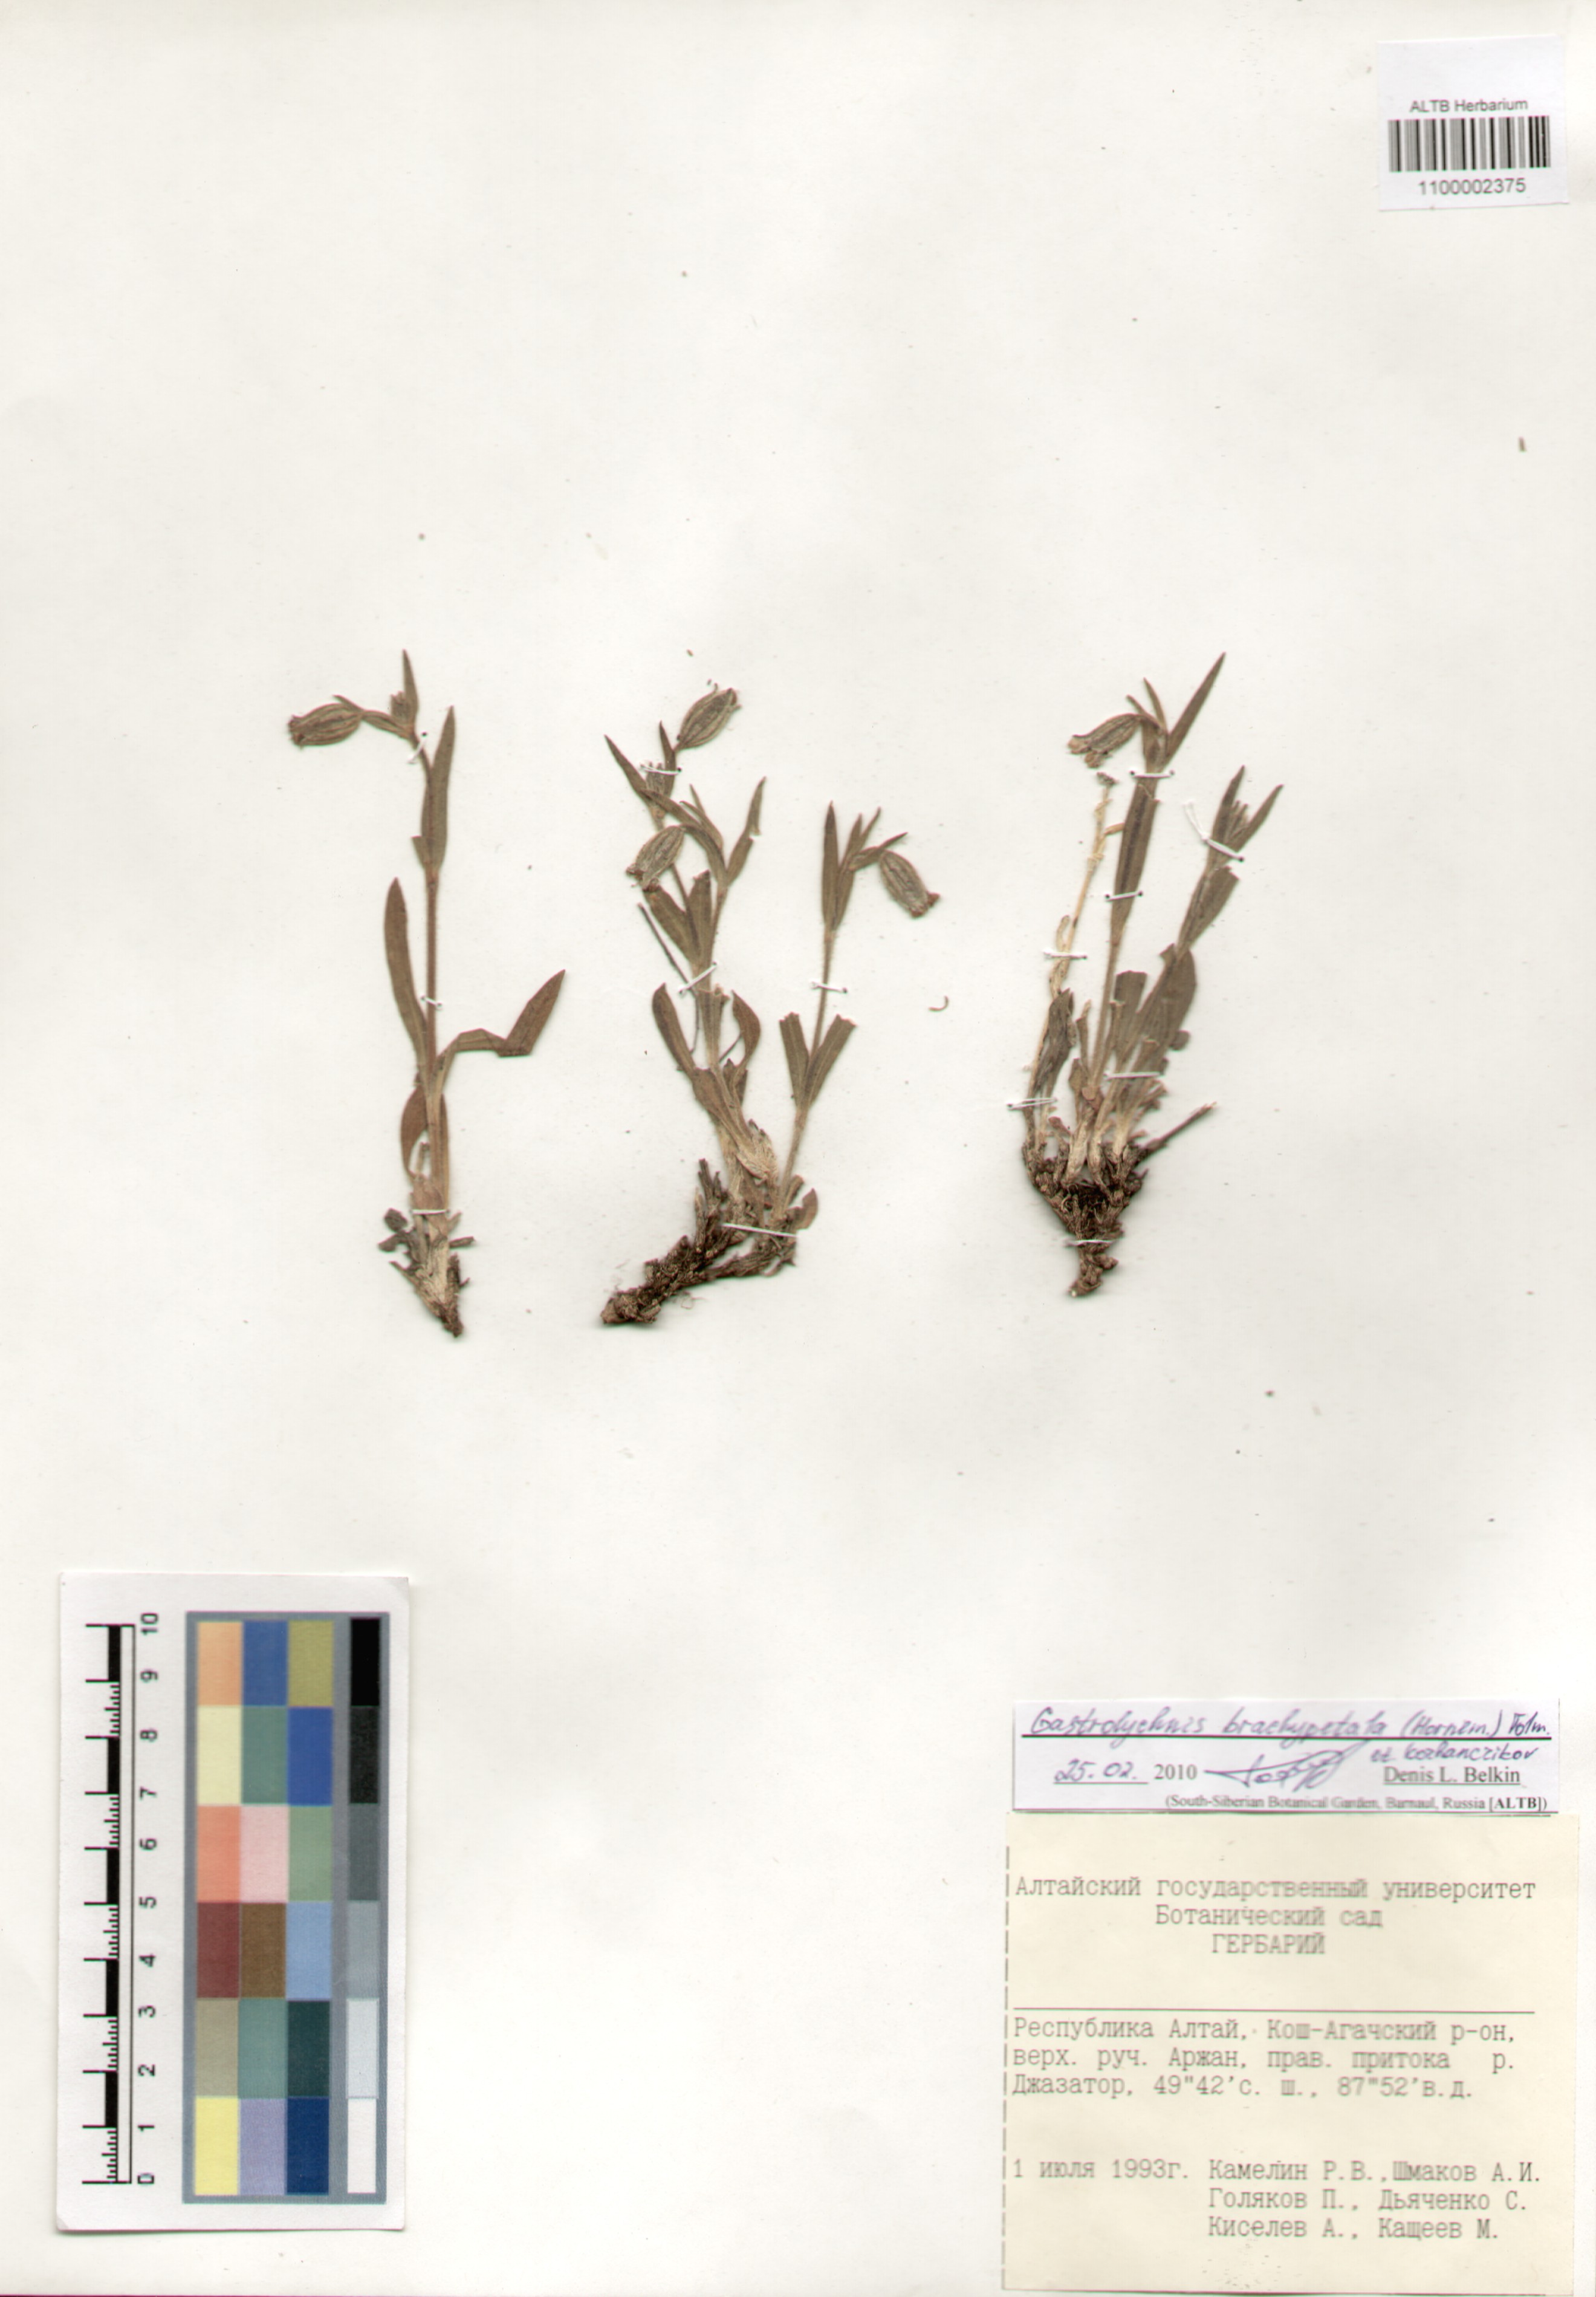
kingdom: Plantae
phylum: Tracheophyta
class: Magnoliopsida
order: Caryophyllales
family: Caryophyllaceae
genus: Silene
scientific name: Silene songarica
